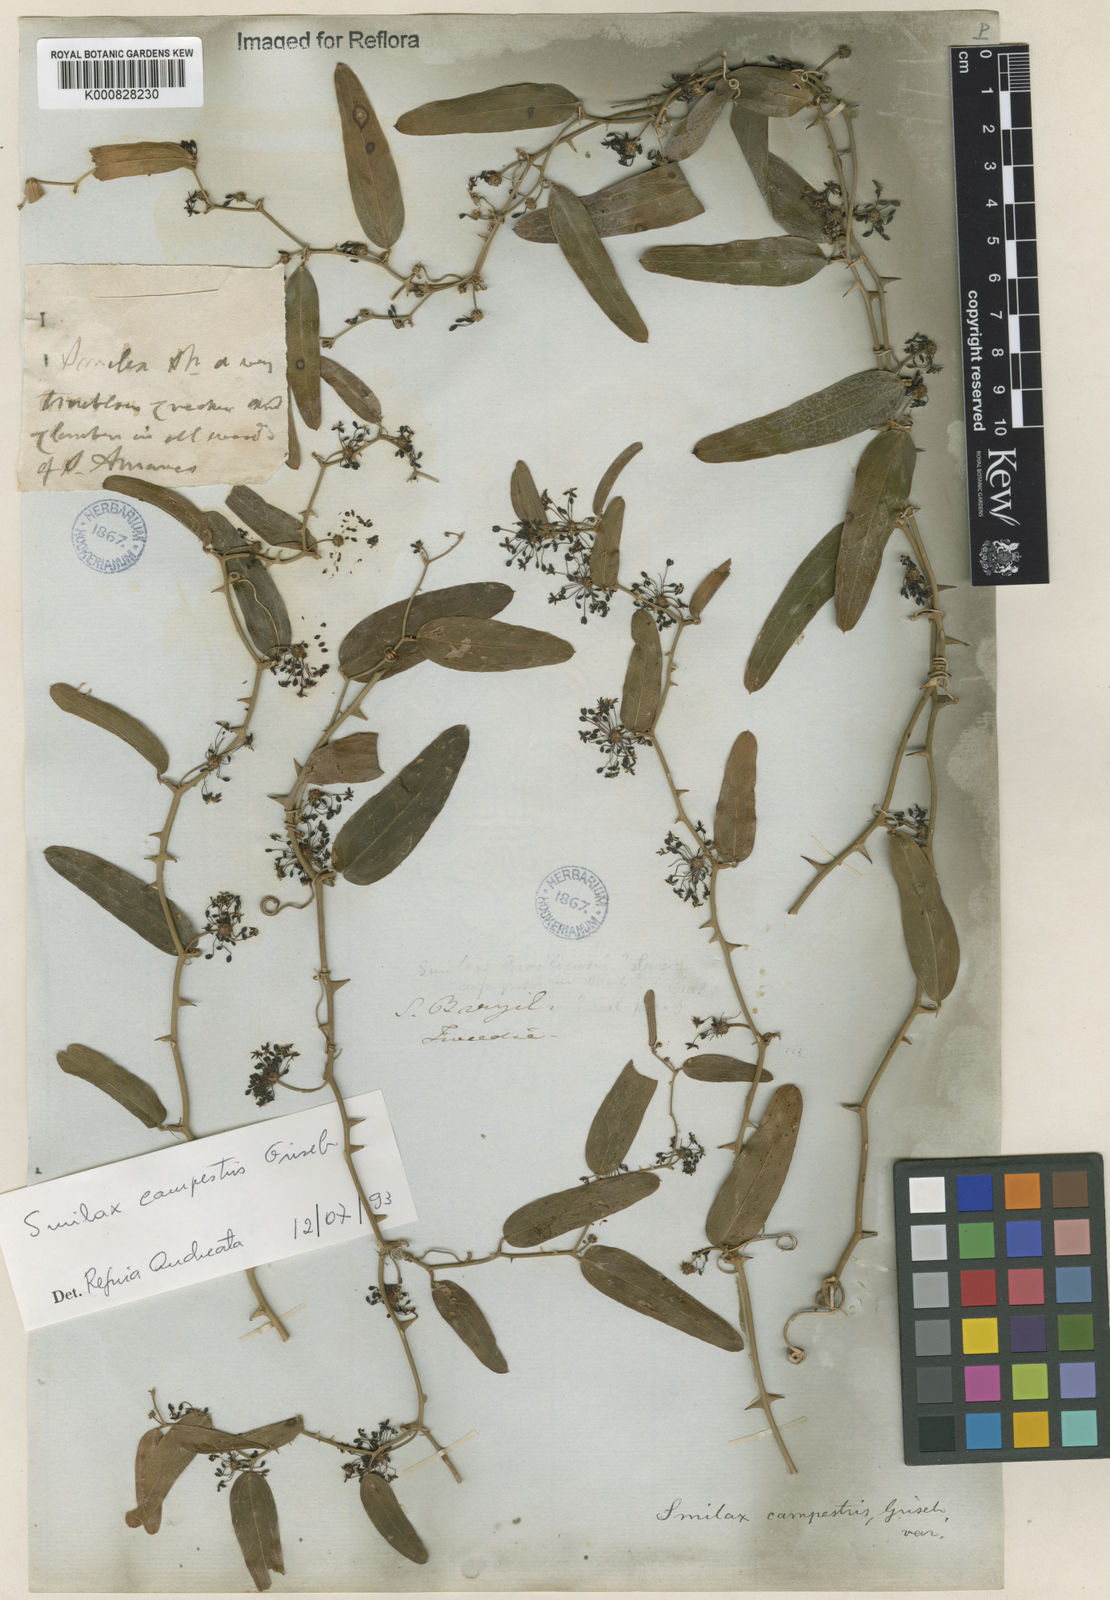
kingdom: Plantae
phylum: Tracheophyta
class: Liliopsida
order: Liliales
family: Smilacaceae
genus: Smilax
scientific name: Smilax campestris
